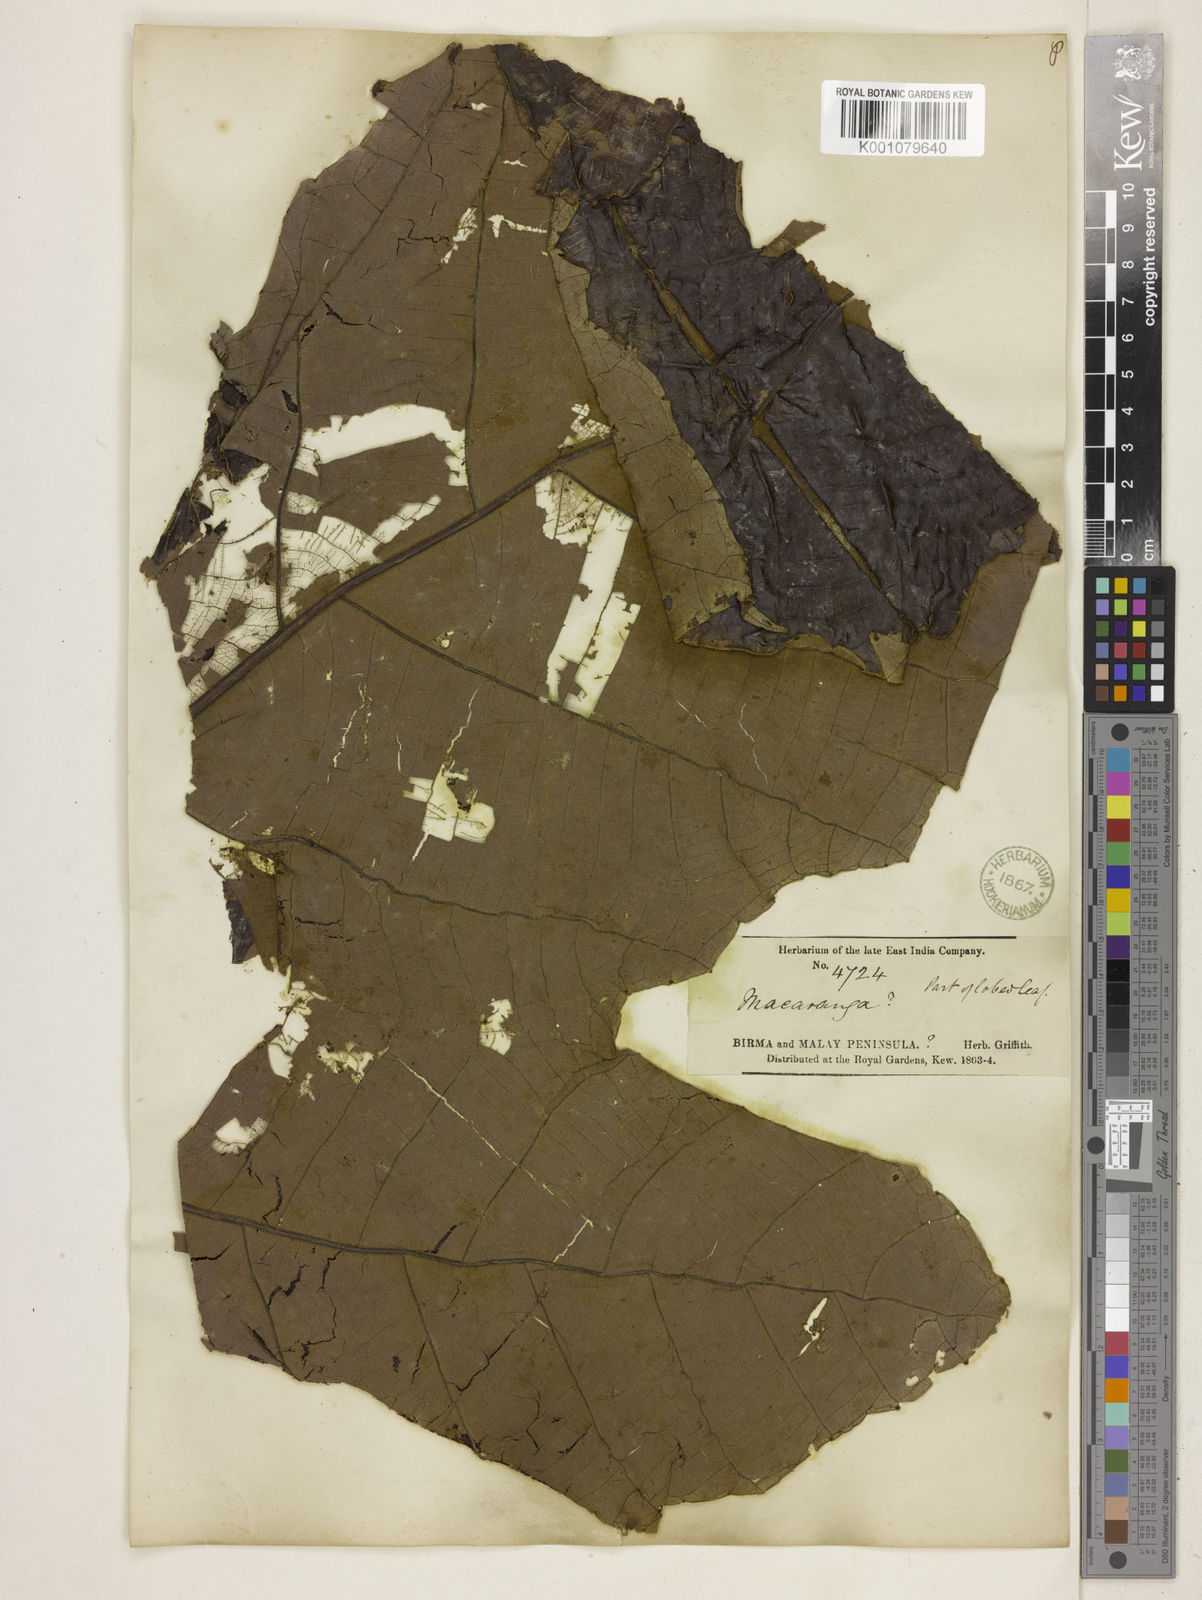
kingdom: Plantae
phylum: Tracheophyta
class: Magnoliopsida
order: Malpighiales
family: Euphorbiaceae
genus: Macaranga
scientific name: Macaranga
